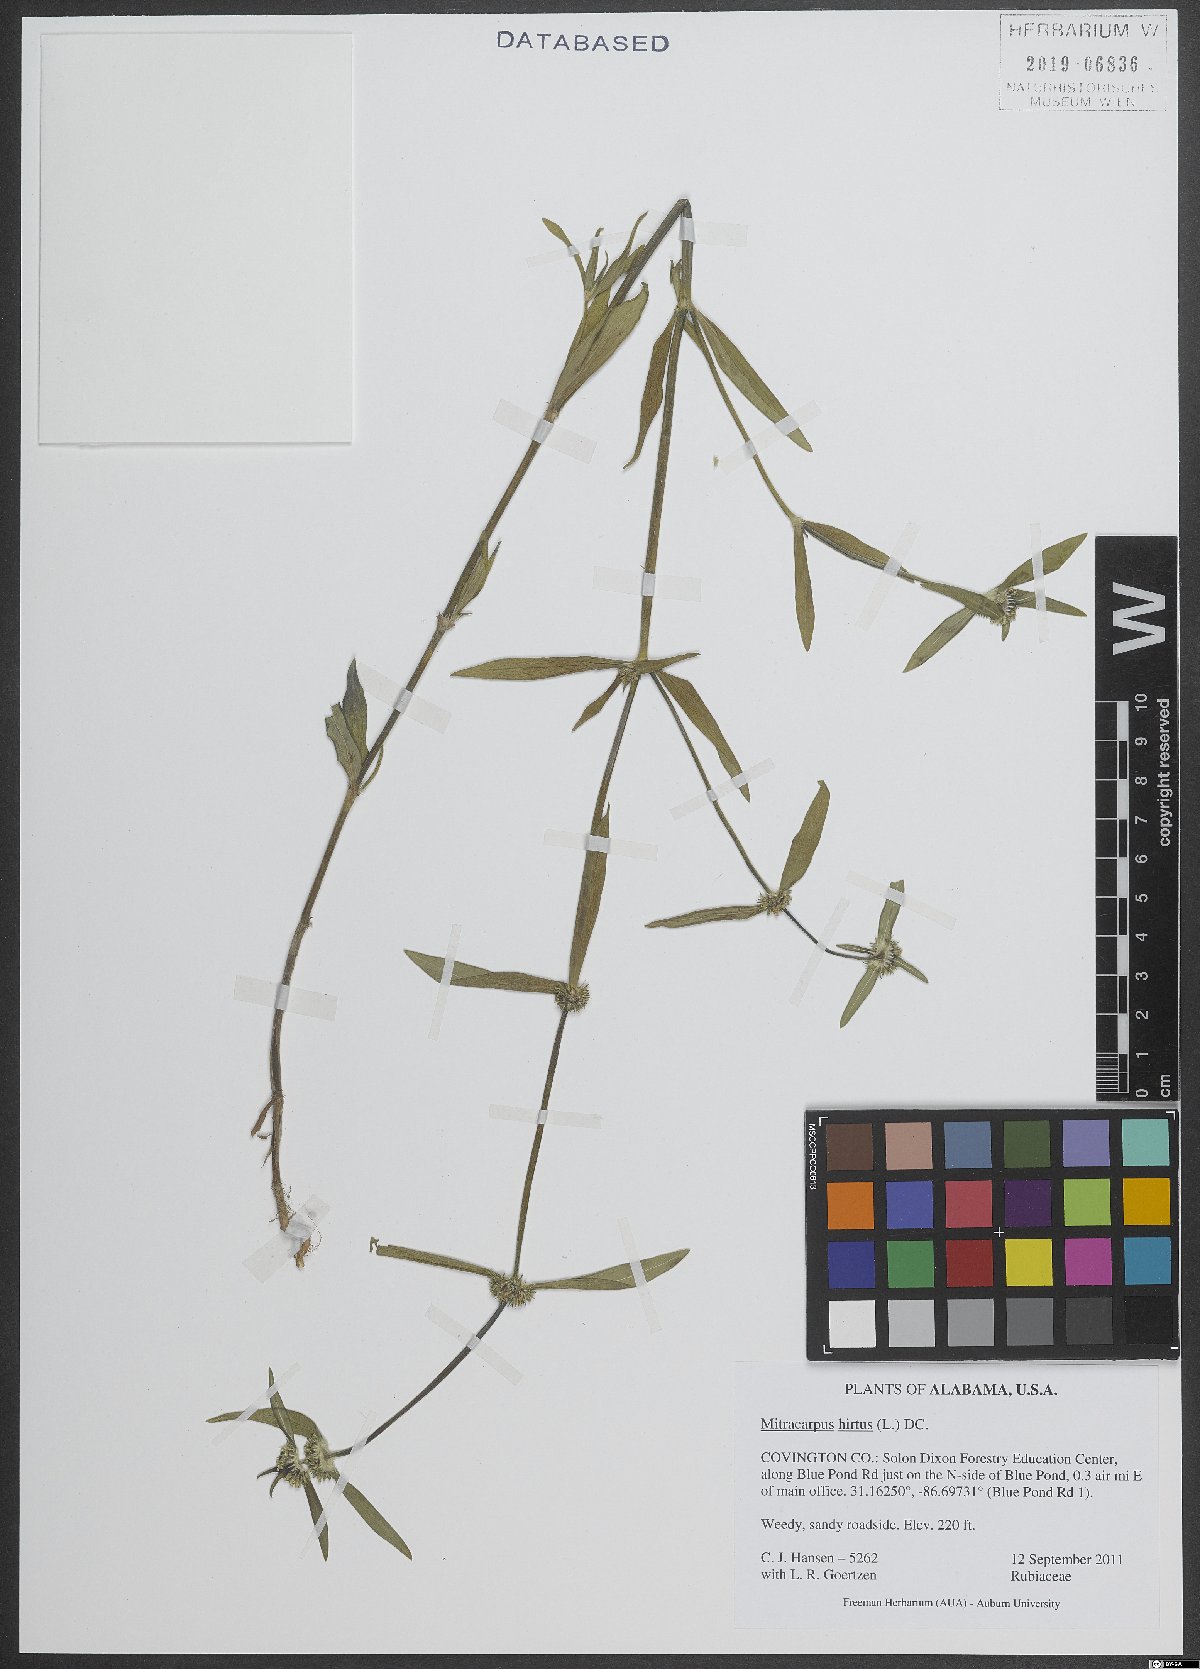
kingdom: Plantae
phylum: Tracheophyta
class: Magnoliopsida
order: Gentianales
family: Rubiaceae
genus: Mitracarpus
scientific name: Mitracarpus hirtus
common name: Tropical girdlepod
